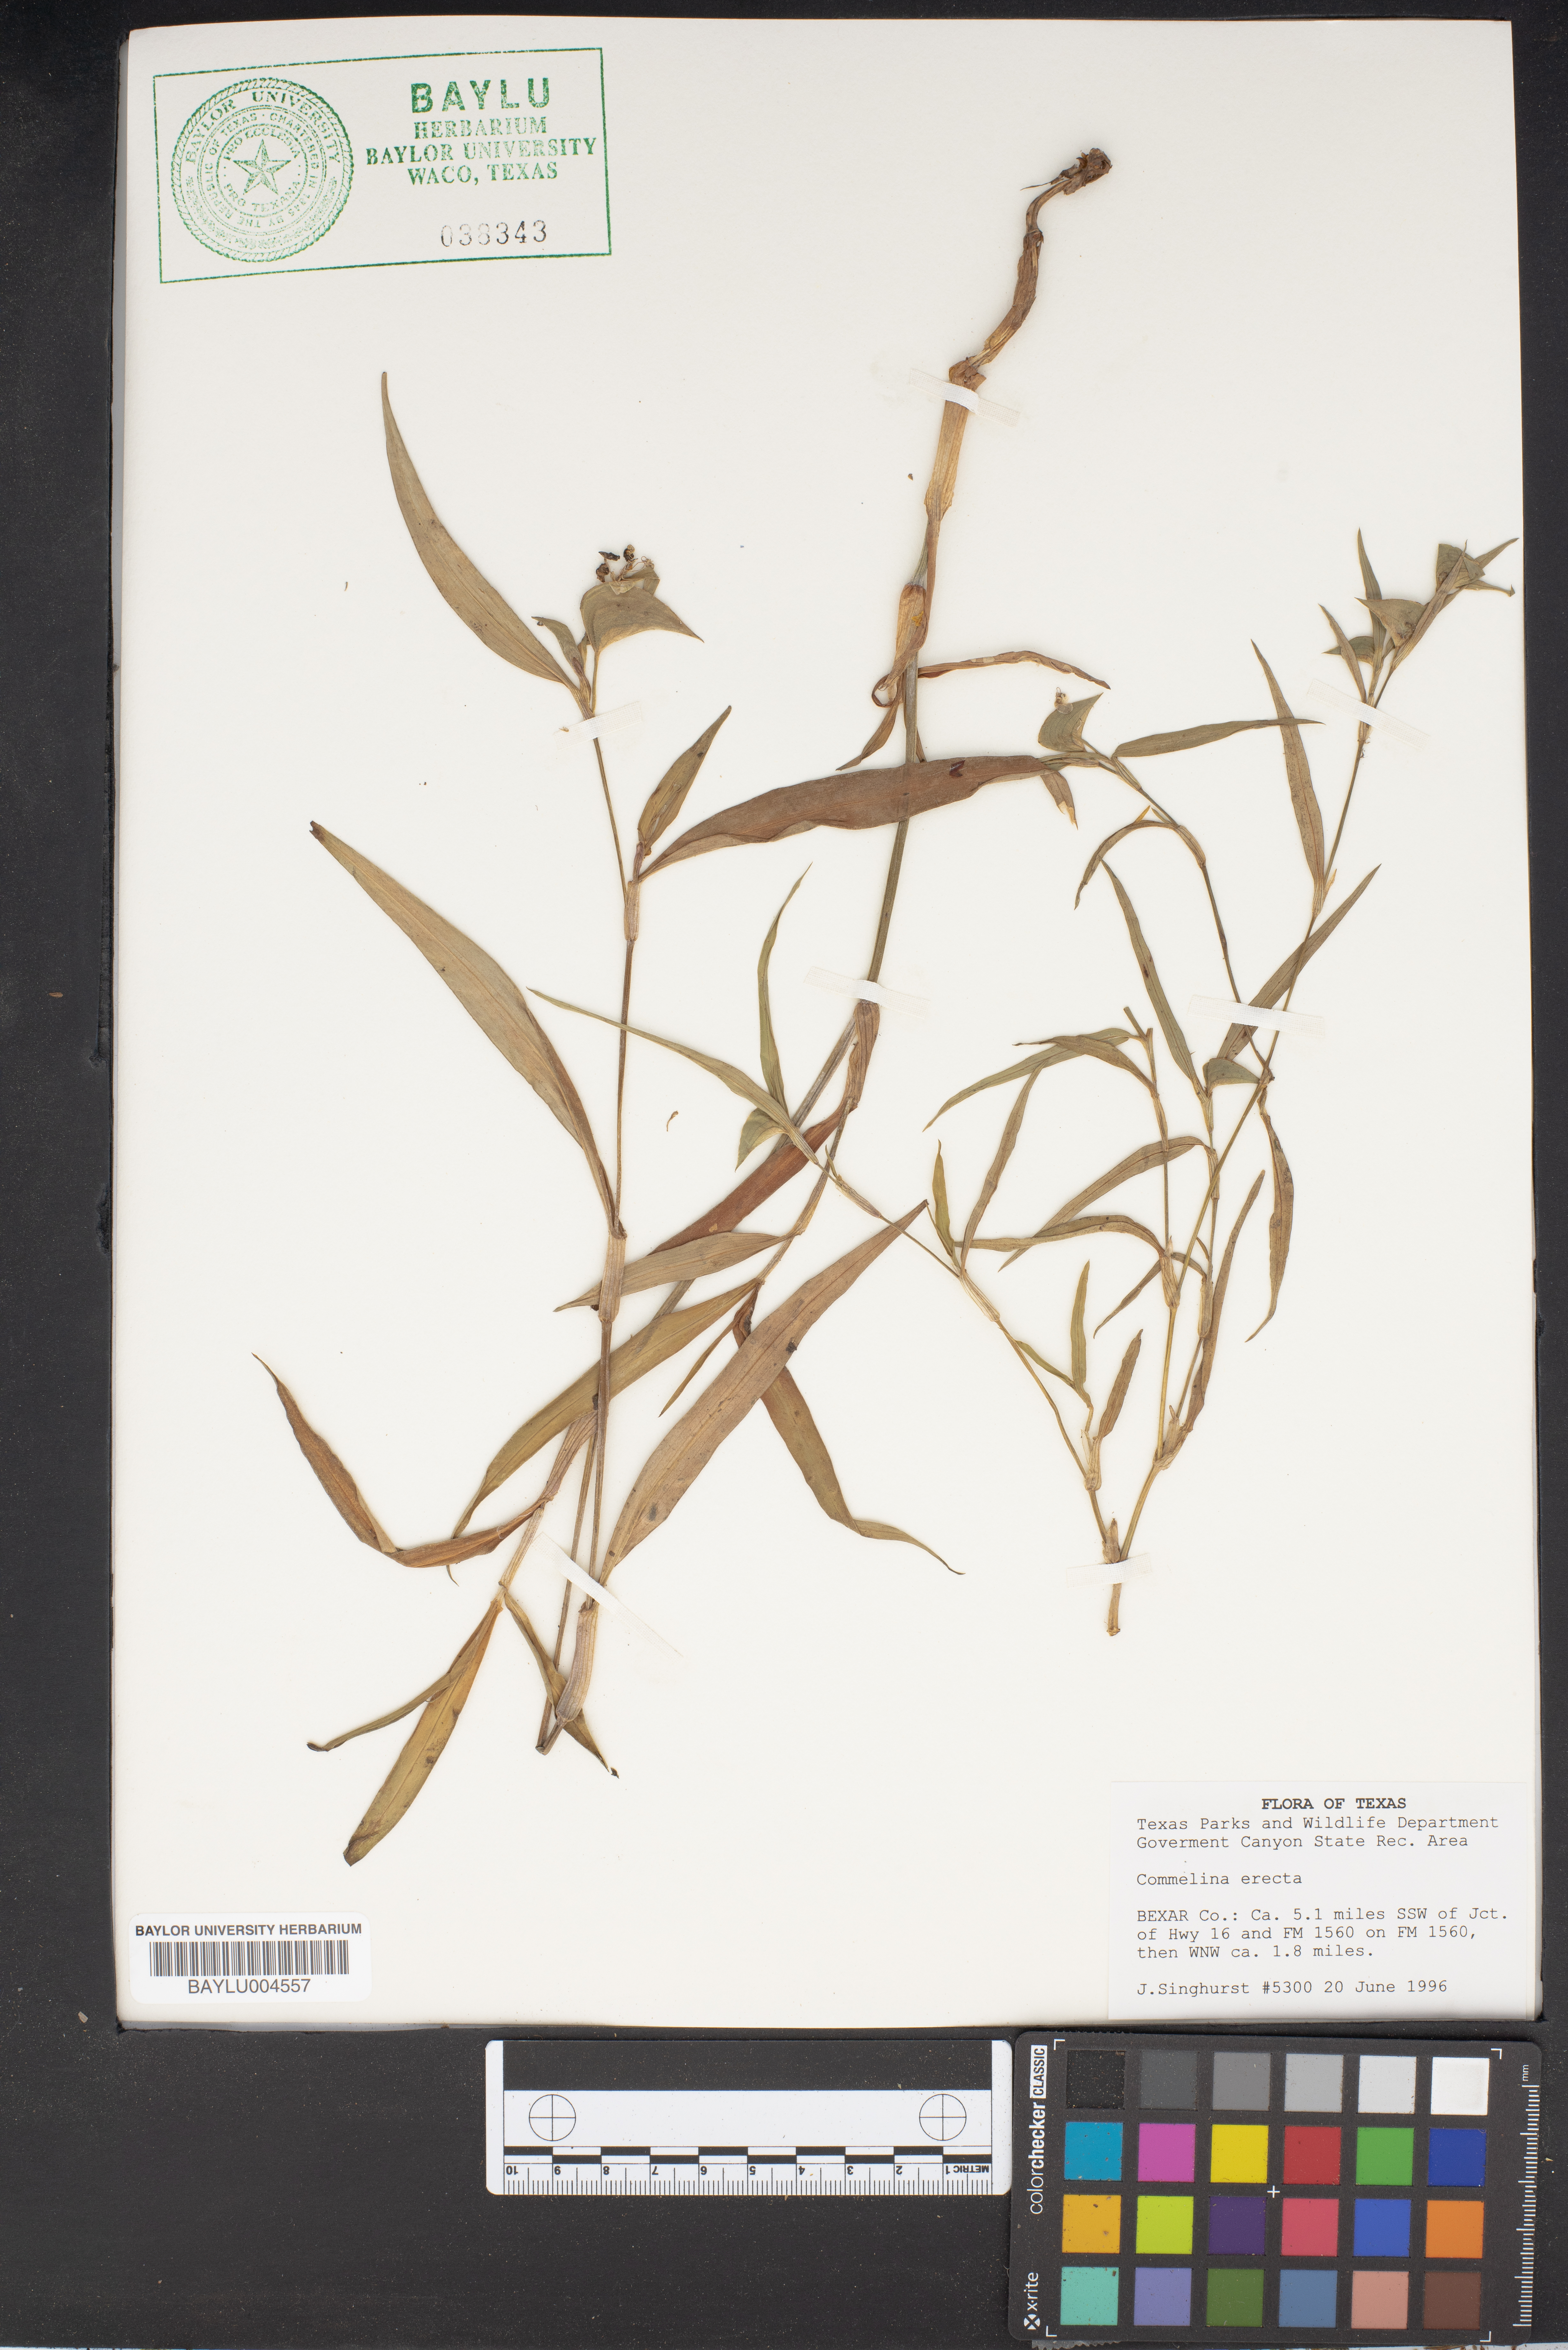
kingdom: Plantae
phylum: Tracheophyta
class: Liliopsida
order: Commelinales
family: Commelinaceae
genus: Commelina
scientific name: Commelina erecta
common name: Blousel blommetjie
